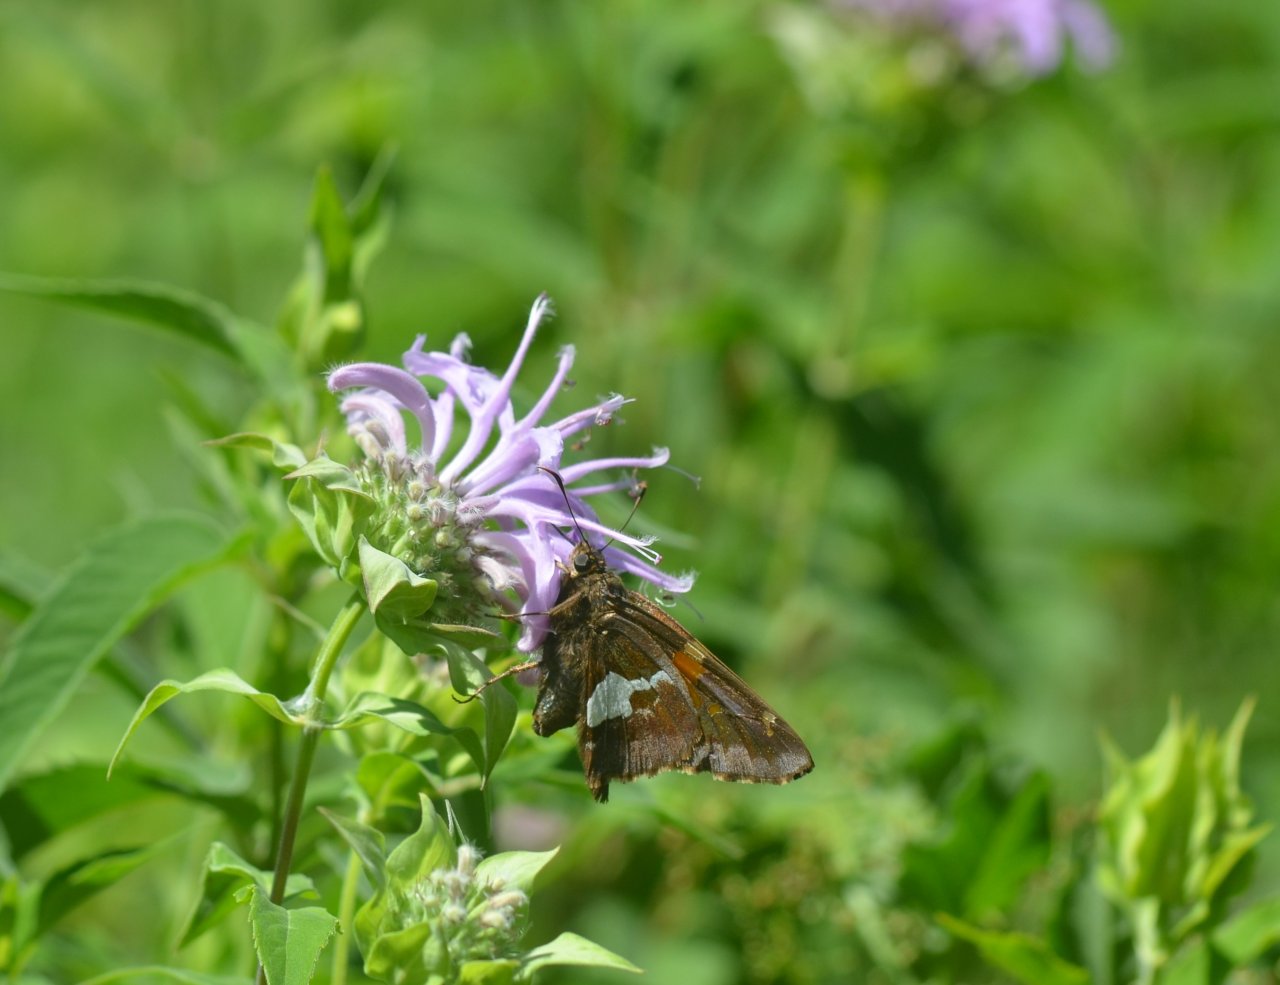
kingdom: Animalia
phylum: Arthropoda
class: Insecta
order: Lepidoptera
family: Hesperiidae
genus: Epargyreus
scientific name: Epargyreus clarus
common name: Silver-spotted Skipper
